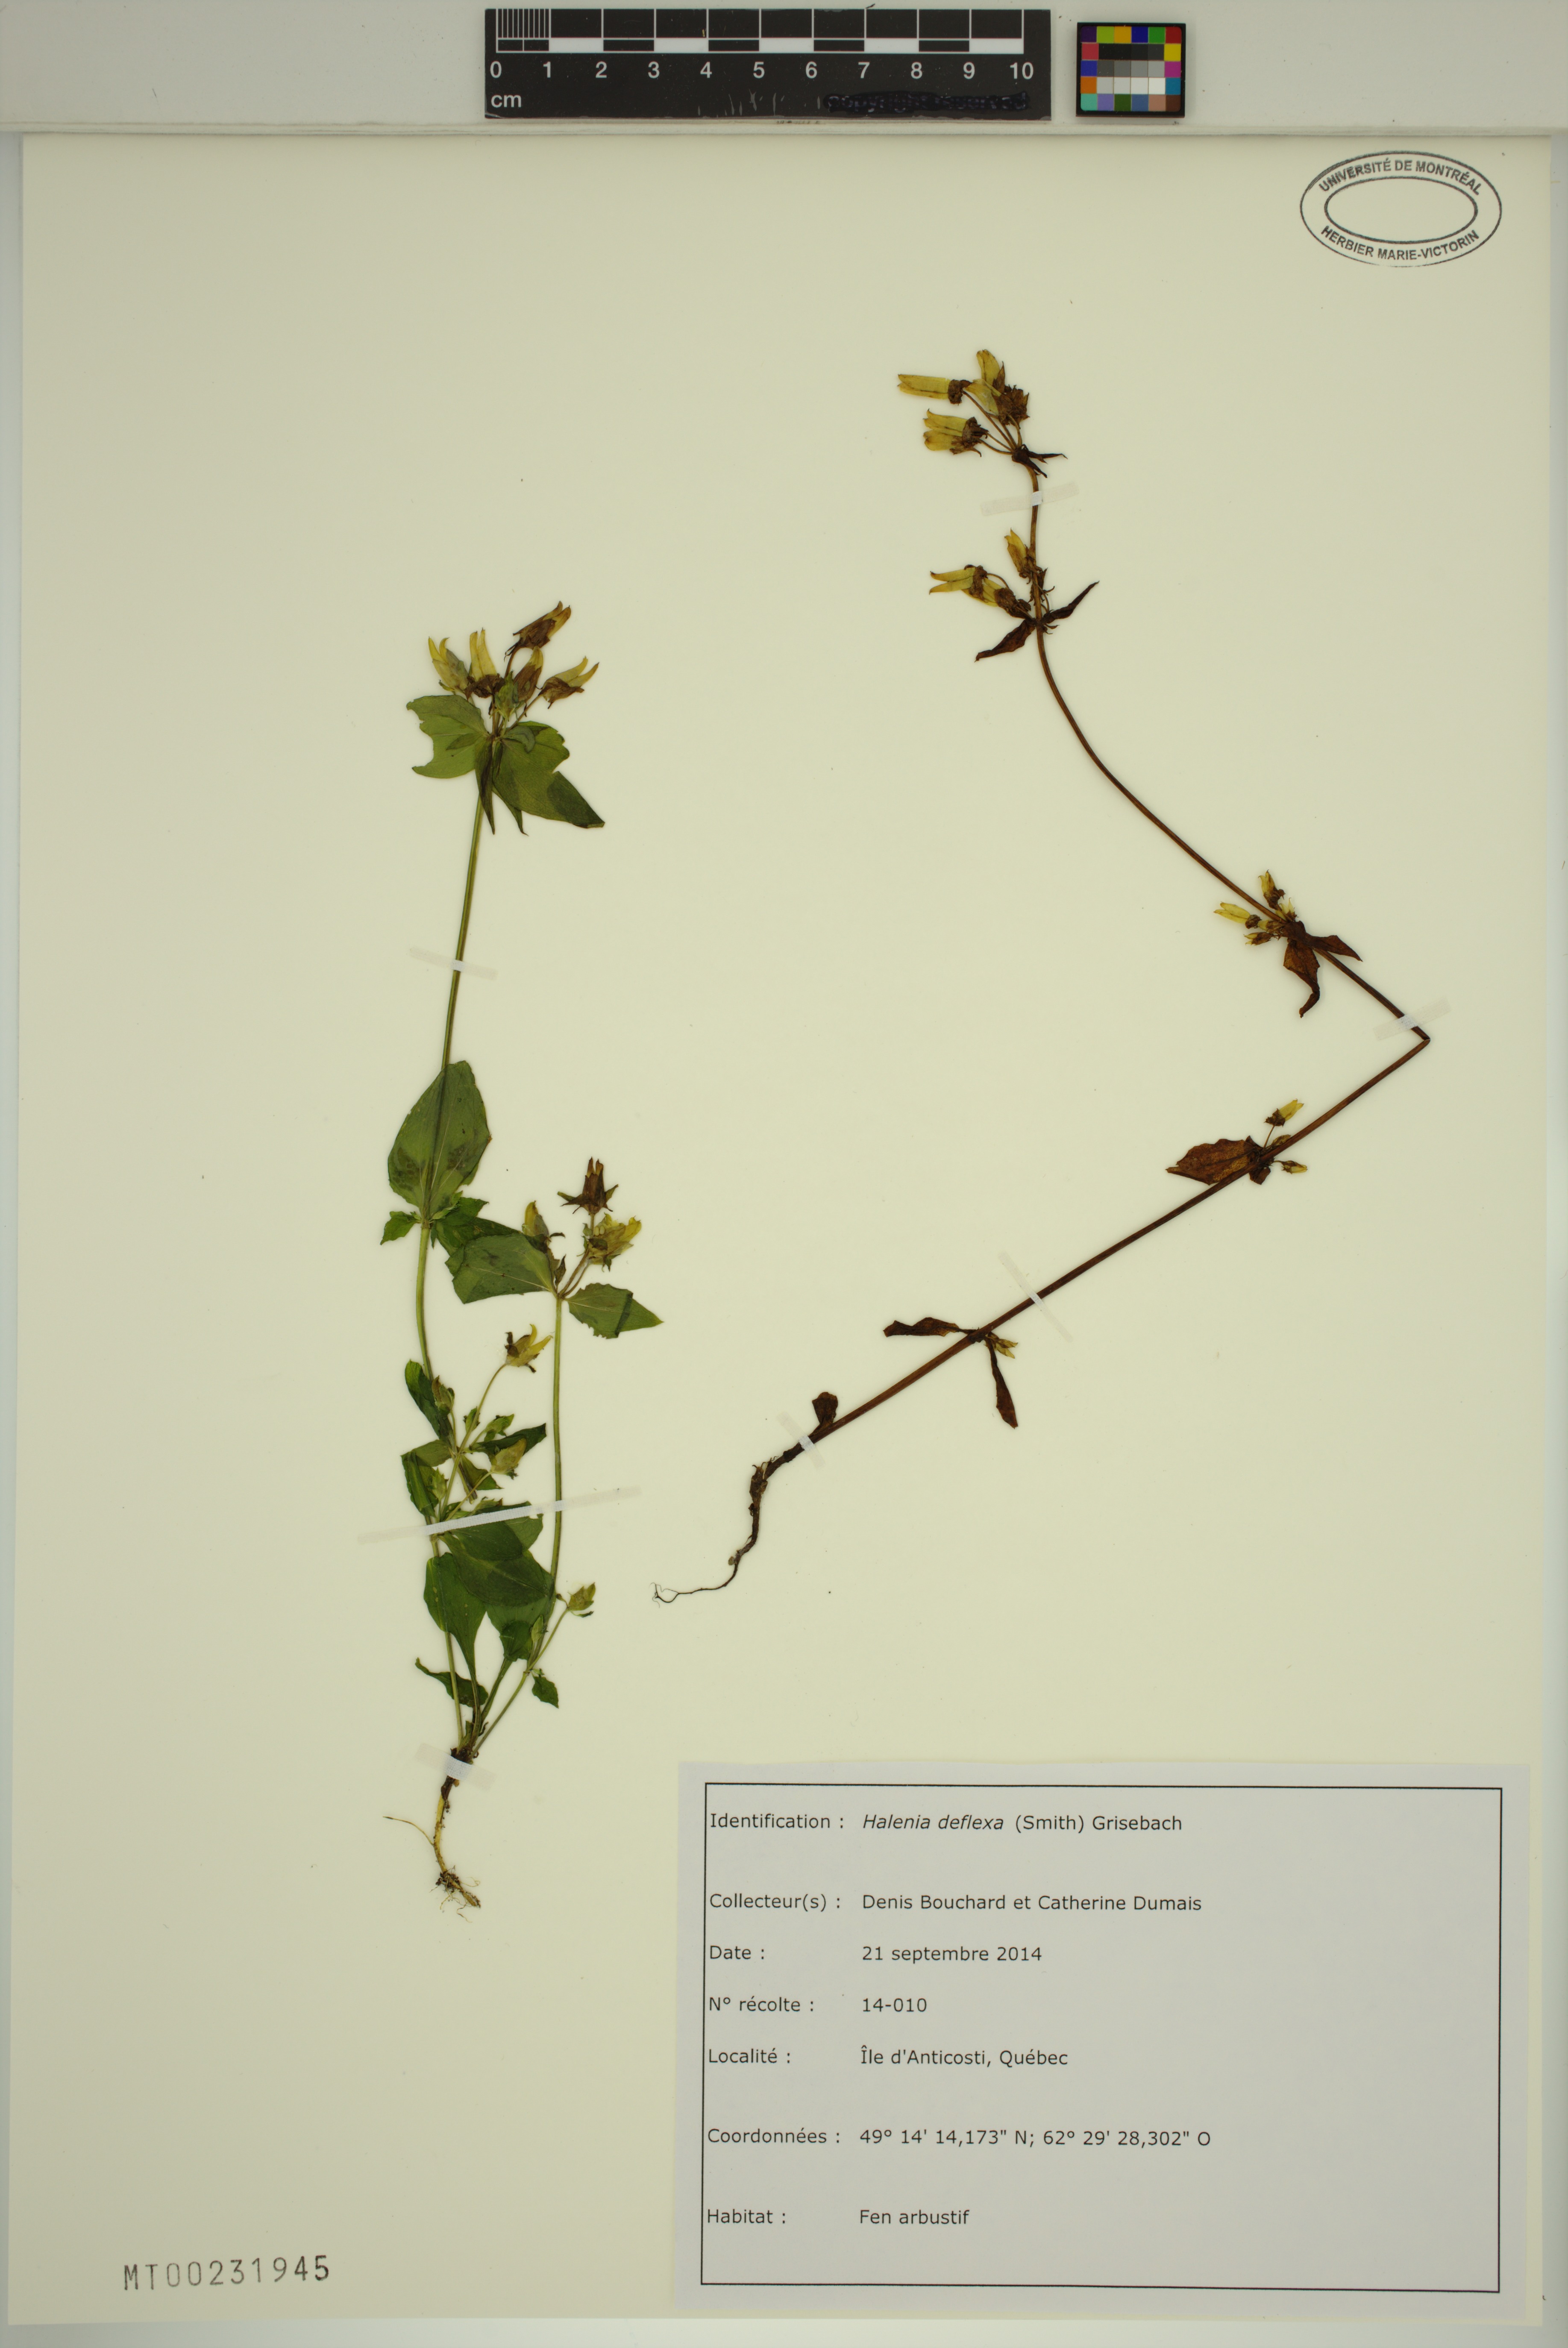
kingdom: Plantae
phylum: Tracheophyta
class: Magnoliopsida
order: Gentianales
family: Gentianaceae
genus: Halenia
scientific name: Halenia deflexa
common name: American spurred gentian
